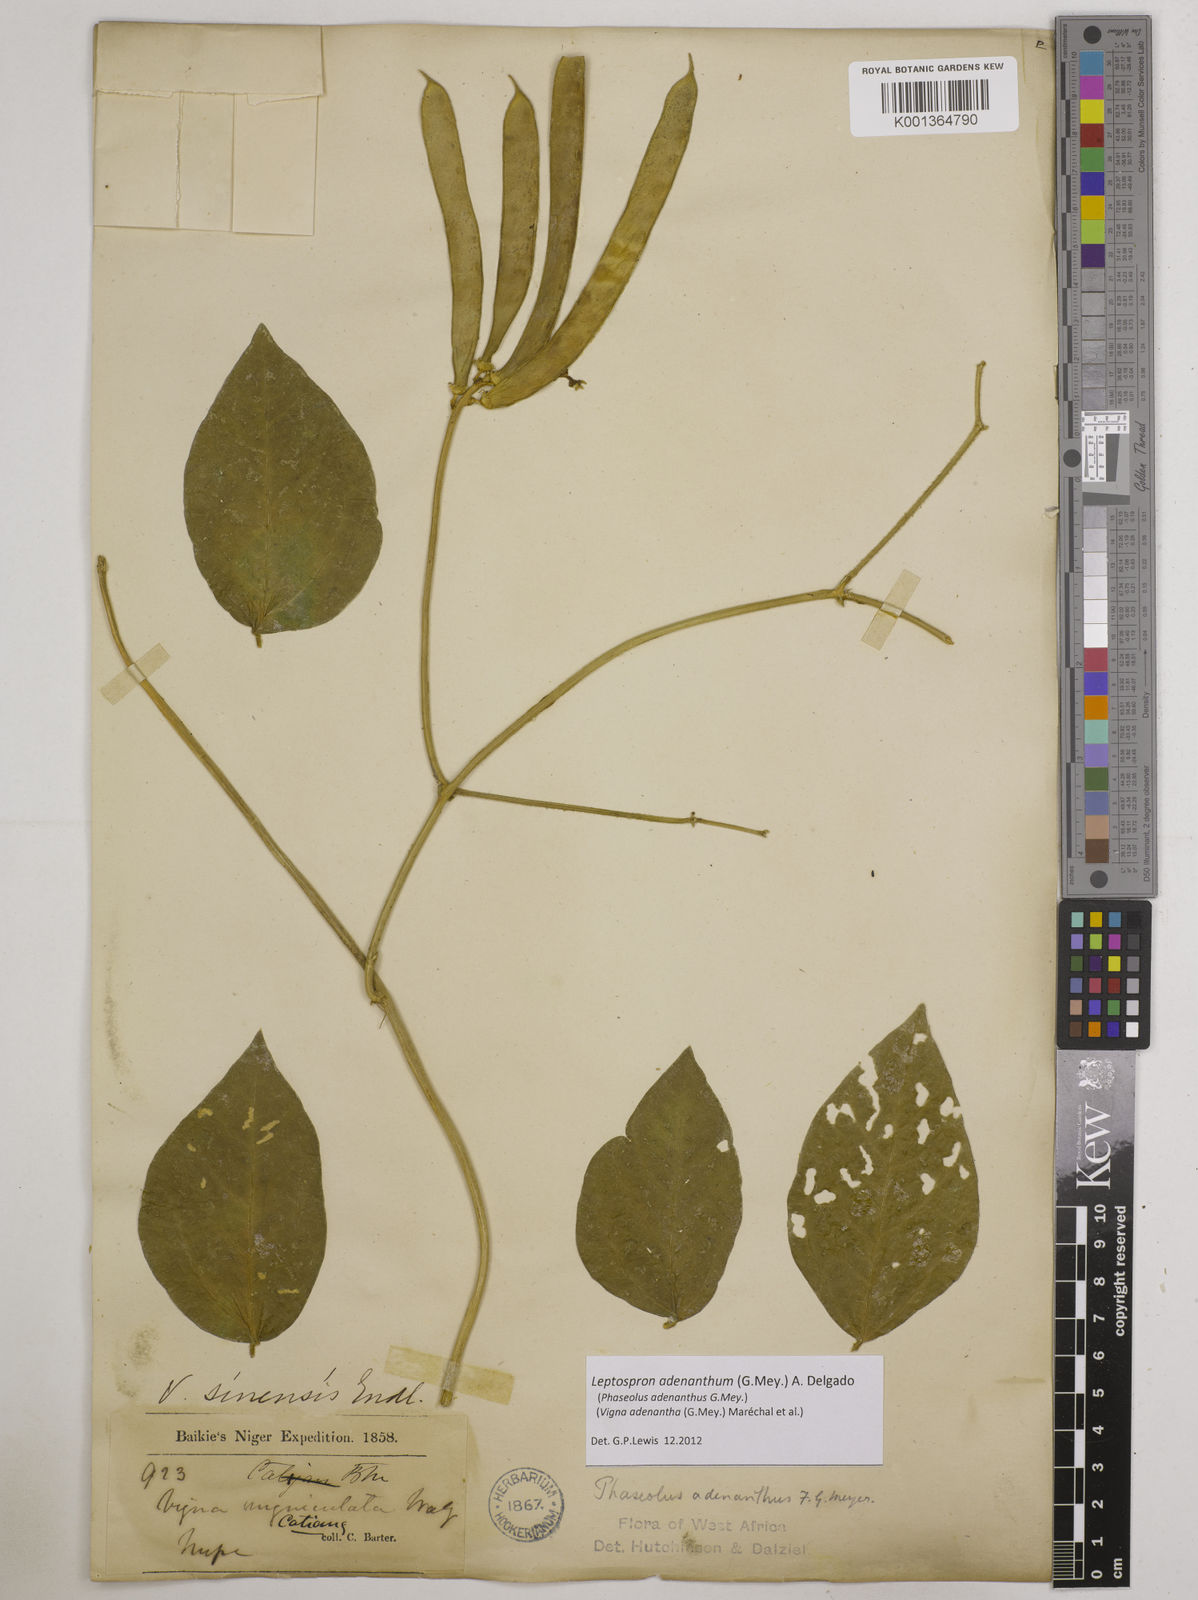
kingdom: Plantae
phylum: Tracheophyta
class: Magnoliopsida
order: Fabales
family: Fabaceae
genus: Leptospron
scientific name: Leptospron adenanthum
